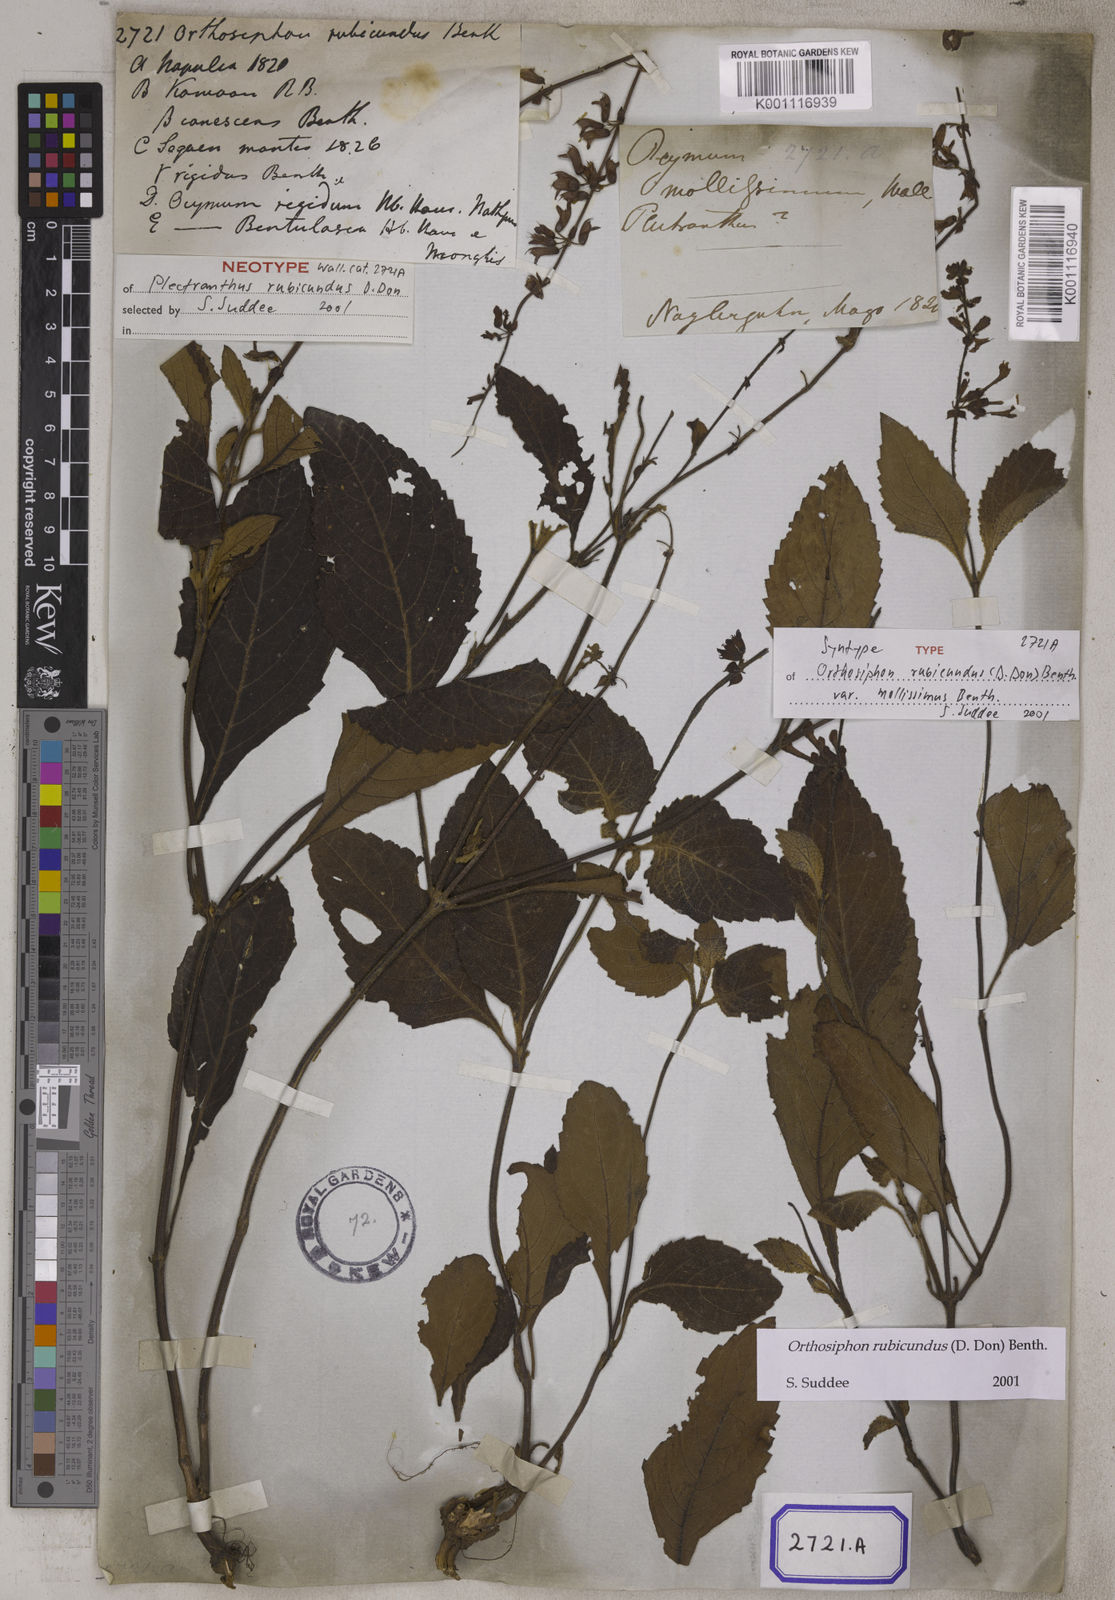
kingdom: Plantae
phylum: Tracheophyta
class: Magnoliopsida
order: Lamiales
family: Lamiaceae
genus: Orthosiphon
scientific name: Orthosiphon rubicundus
